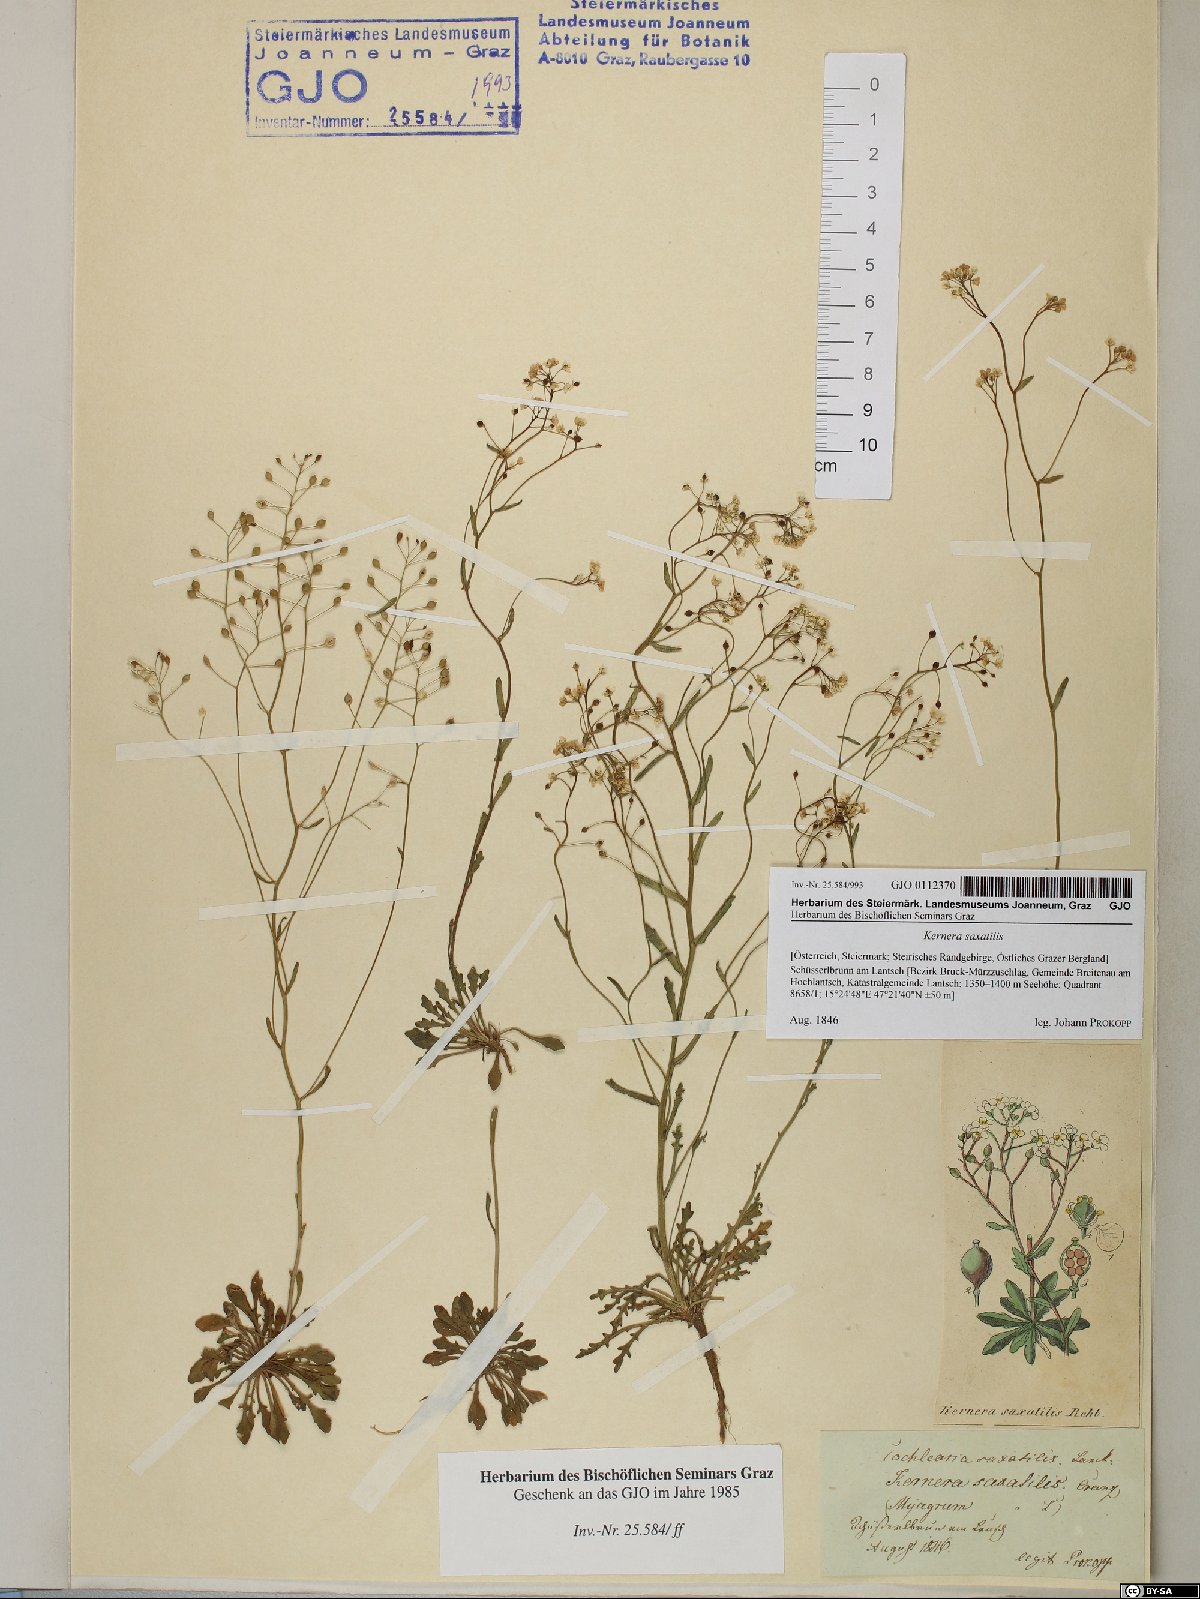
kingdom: Plantae
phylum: Tracheophyta
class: Magnoliopsida
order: Brassicales
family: Brassicaceae
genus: Kernera
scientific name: Kernera saxatilis
